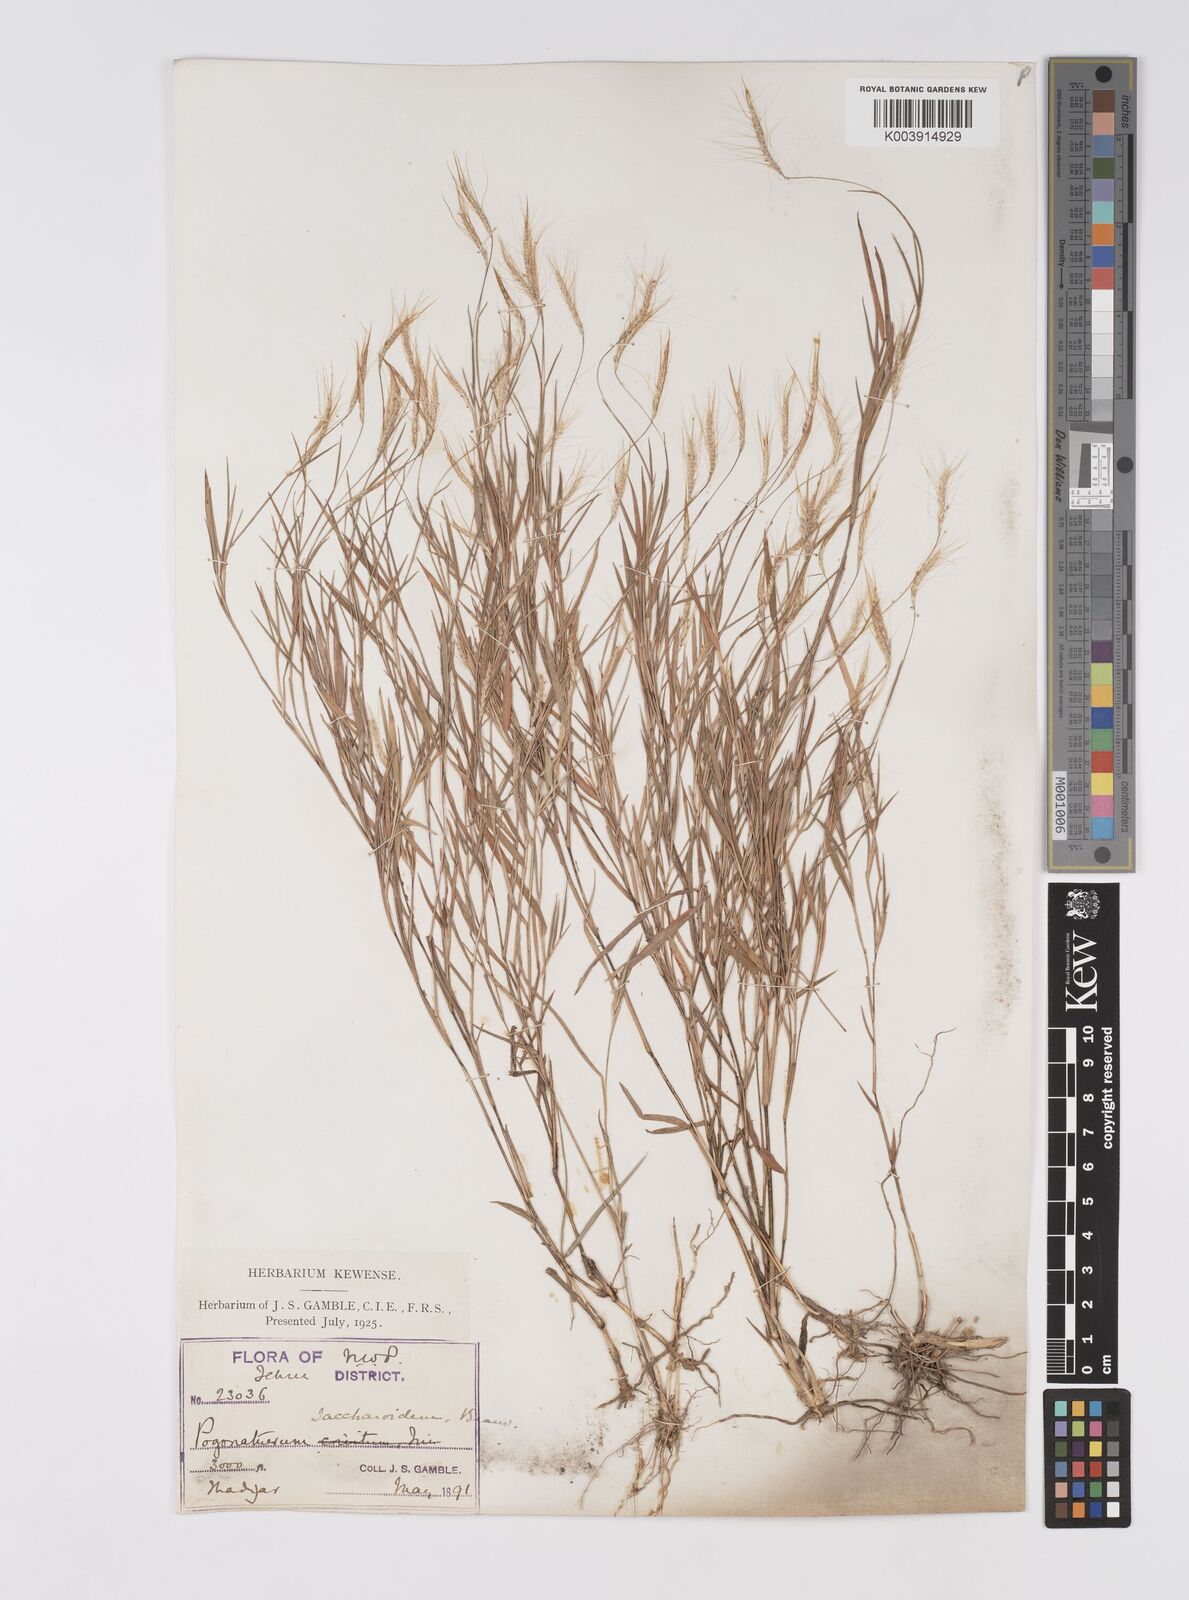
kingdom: Plantae
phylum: Tracheophyta
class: Liliopsida
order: Poales
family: Poaceae
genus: Pogonatherum
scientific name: Pogonatherum paniceum
